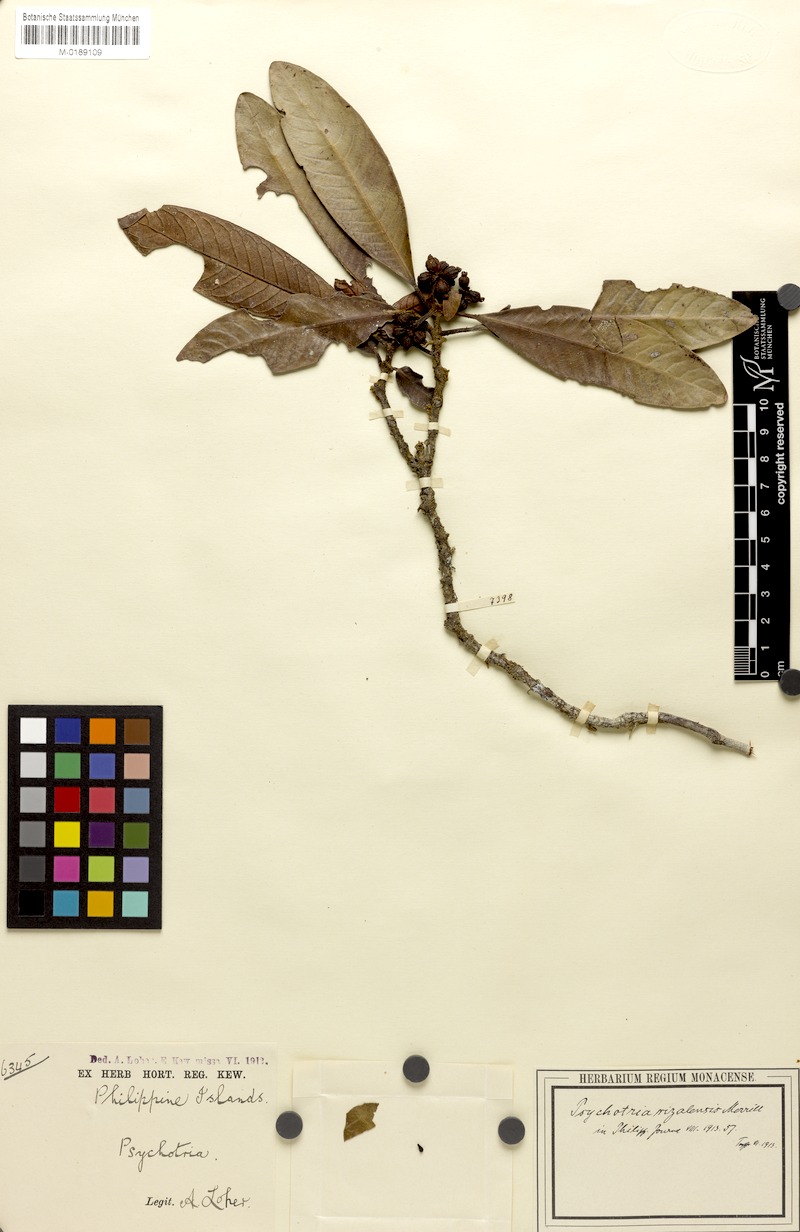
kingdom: Plantae
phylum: Tracheophyta
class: Magnoliopsida
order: Gentianales
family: Rubiaceae
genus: Psychotria
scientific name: Psychotria bataanensis
